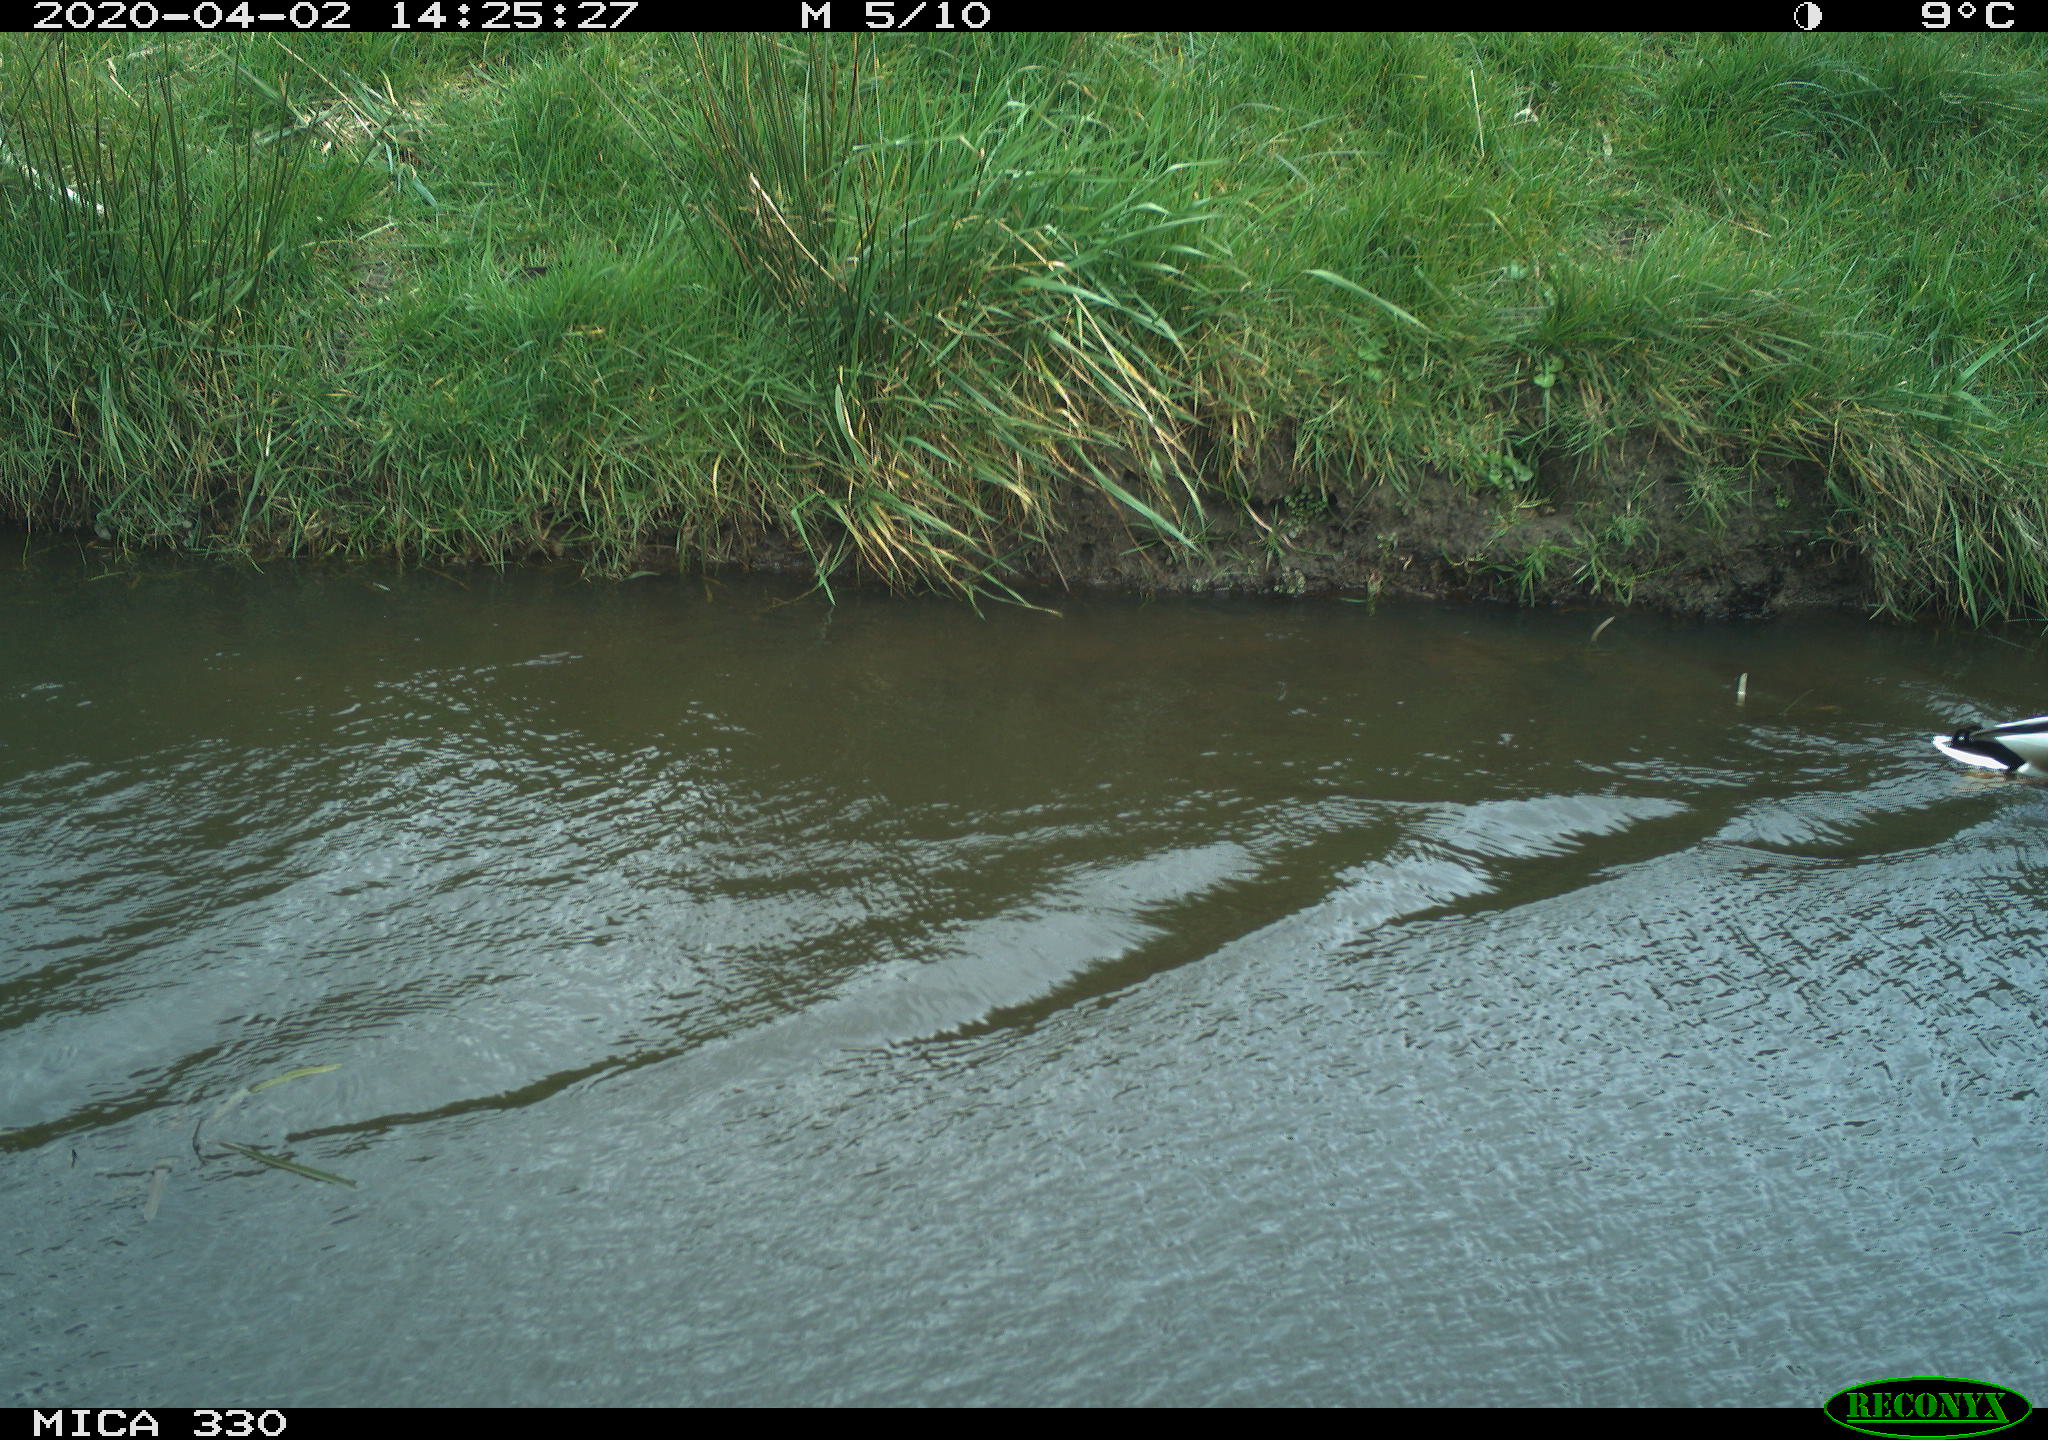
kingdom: Animalia
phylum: Chordata
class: Aves
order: Anseriformes
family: Anatidae
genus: Anas
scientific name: Anas platyrhynchos
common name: Mallard
